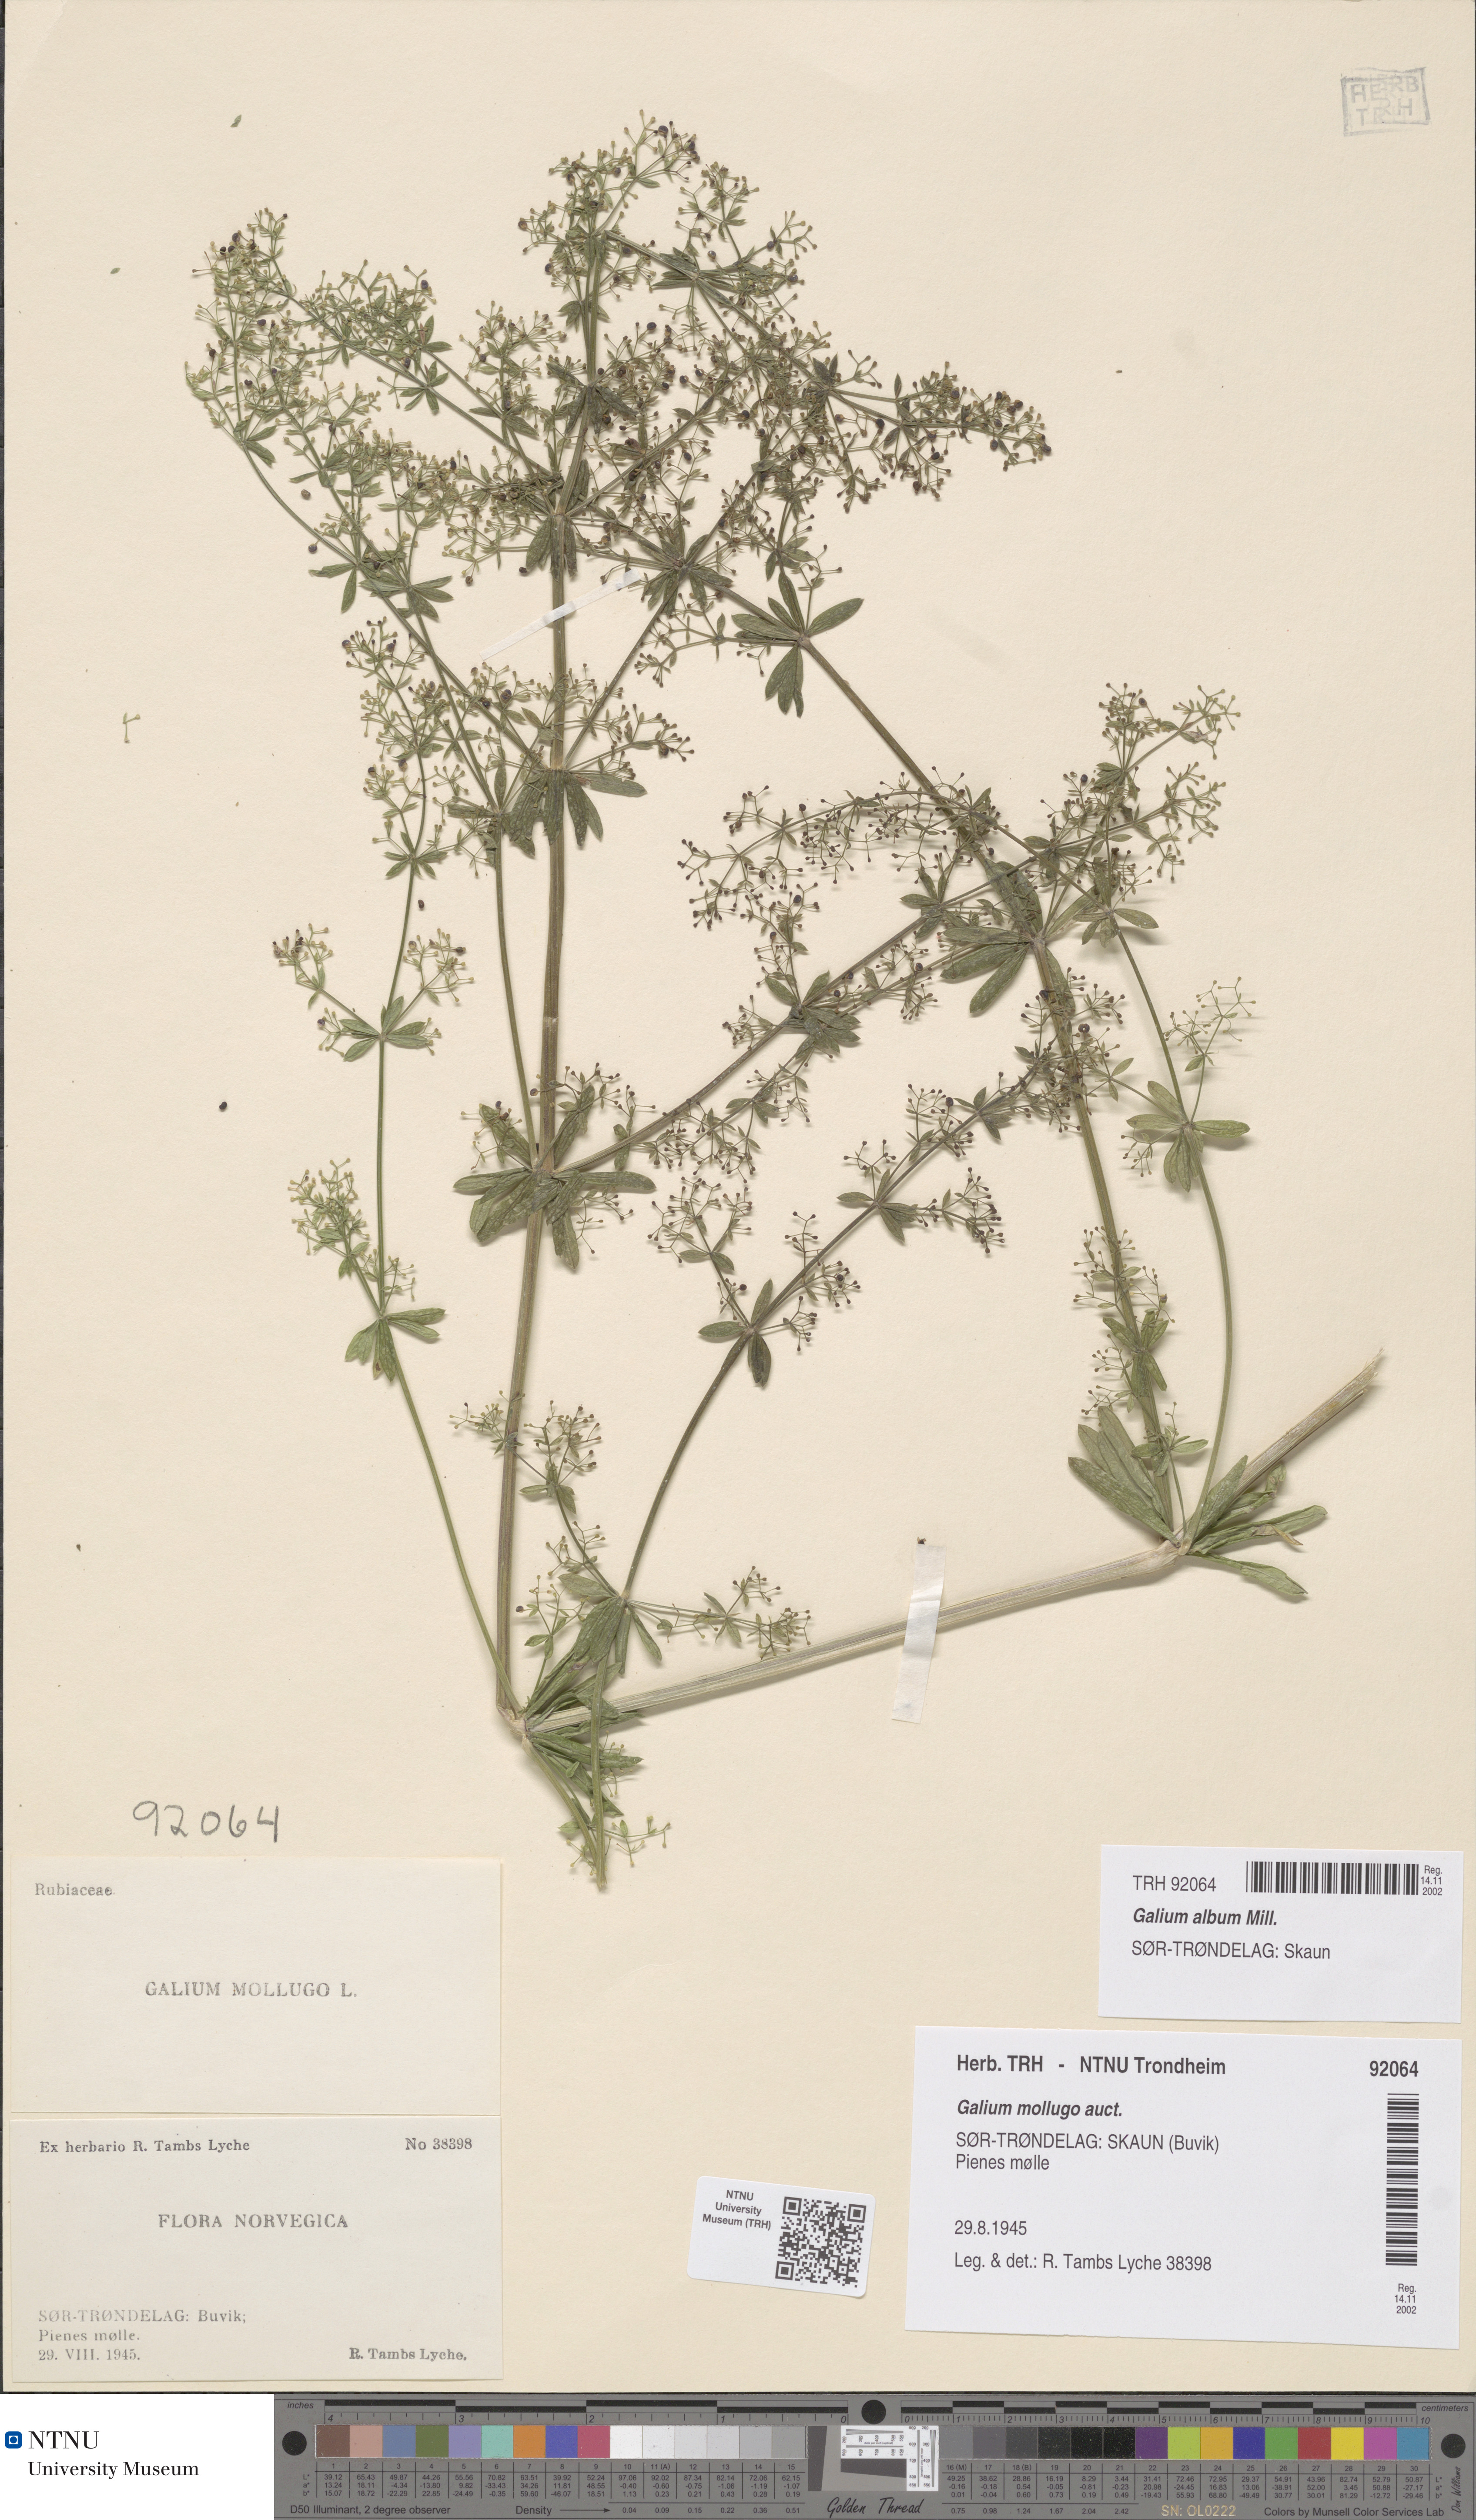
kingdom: Plantae
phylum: Tracheophyta
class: Magnoliopsida
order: Gentianales
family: Rubiaceae
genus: Galium
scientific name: Galium album
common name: White bedstraw
